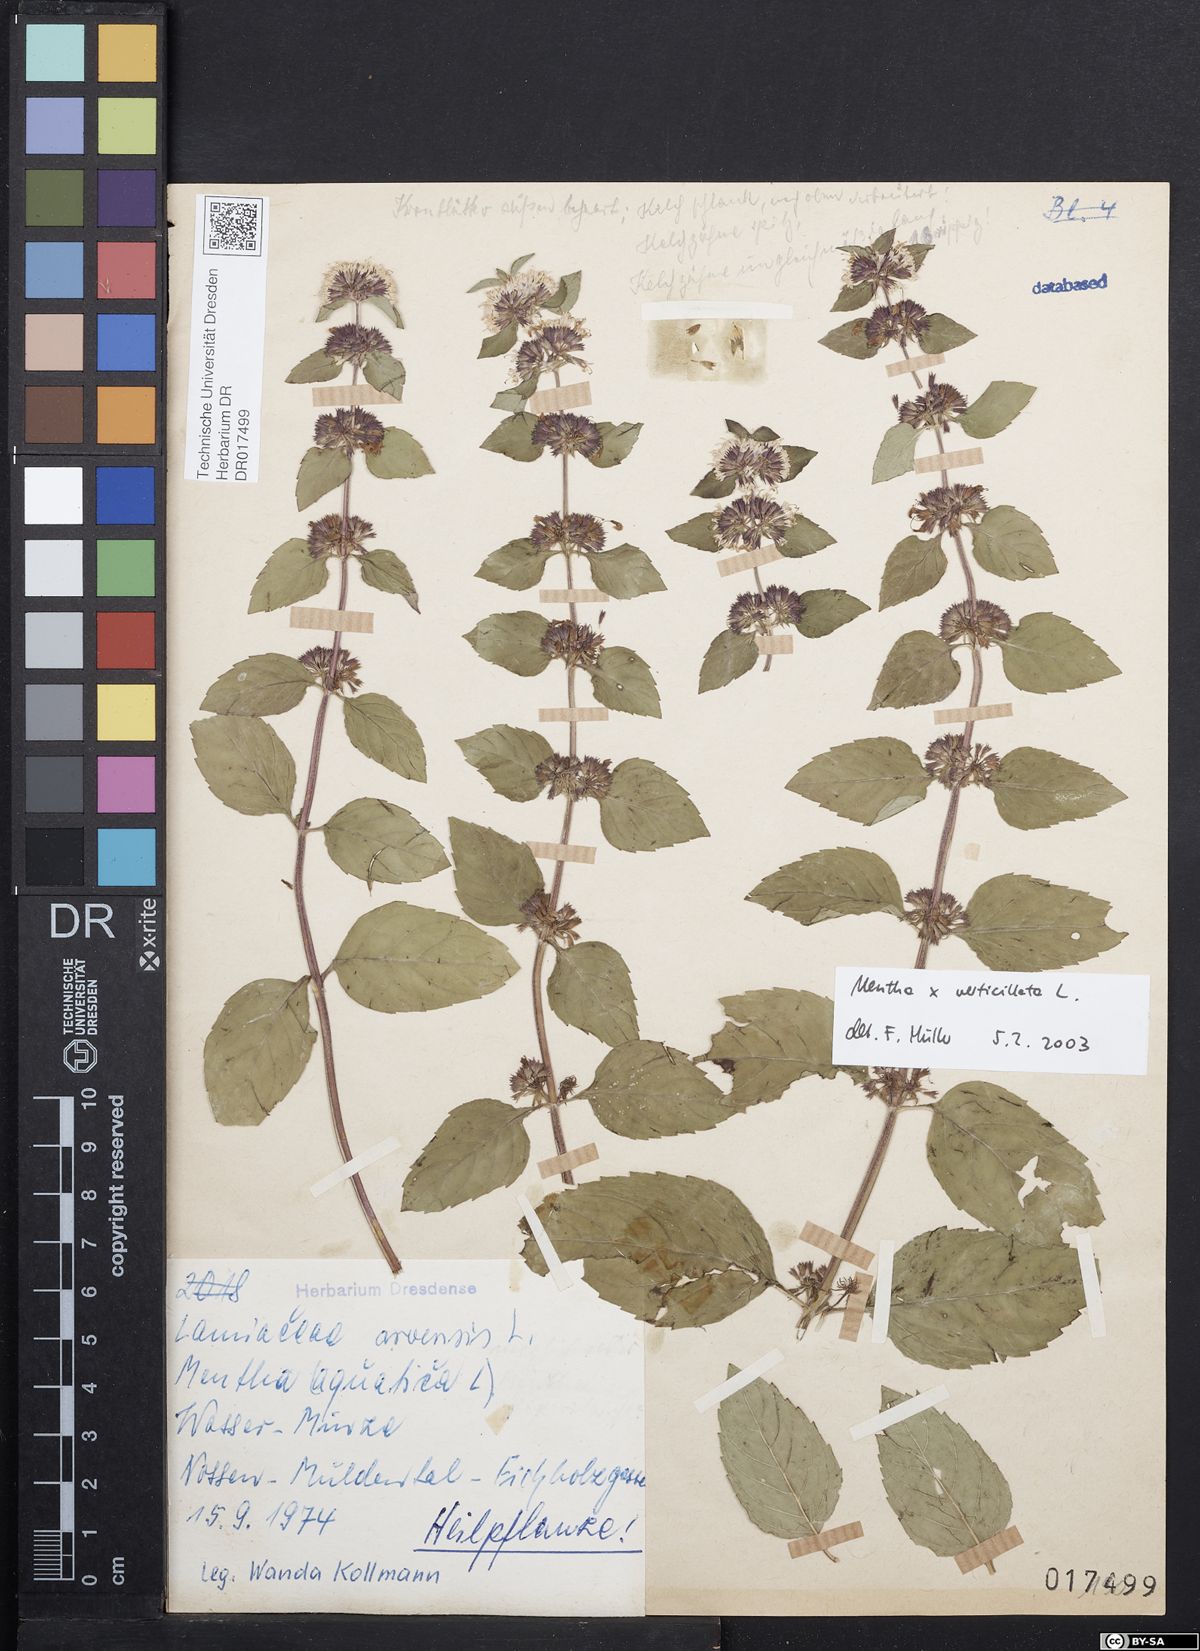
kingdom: Plantae
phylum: Tracheophyta
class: Magnoliopsida
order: Lamiales
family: Lamiaceae
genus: Mentha
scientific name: Mentha verticillata
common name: Mint
